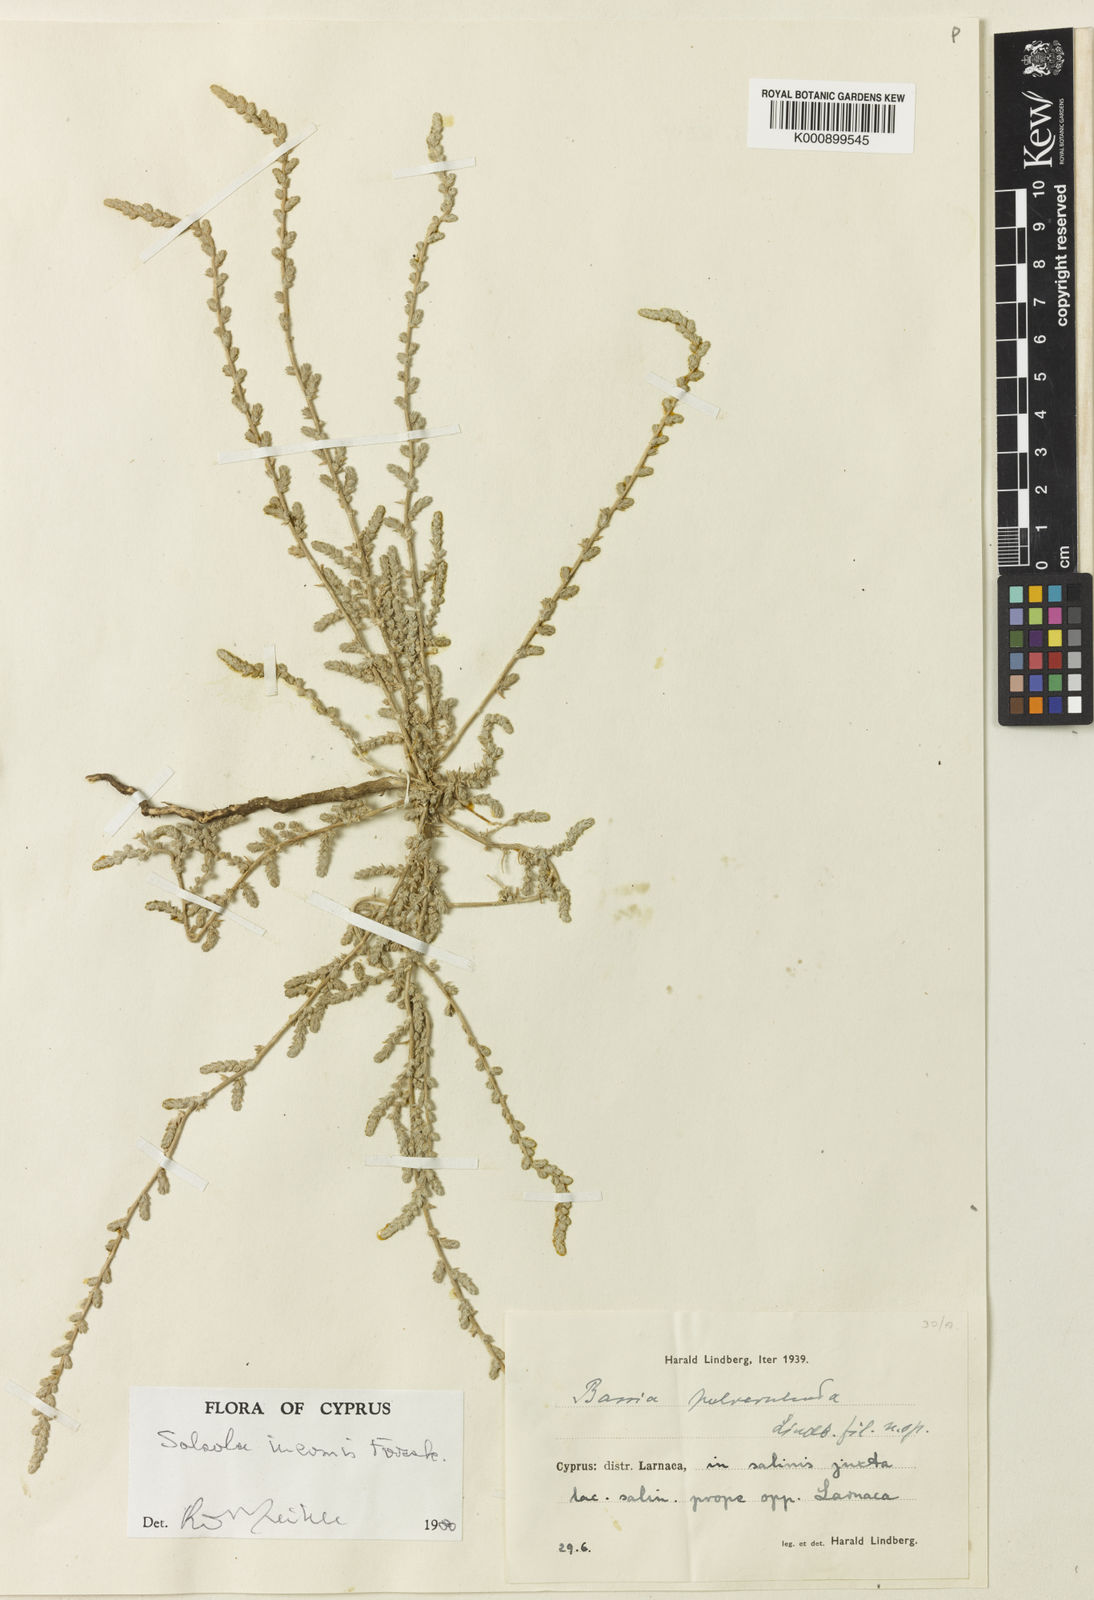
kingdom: Plantae
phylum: Tracheophyta
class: Magnoliopsida
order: Caryophyllales
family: Amaranthaceae
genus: Salsola
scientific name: Salsola
